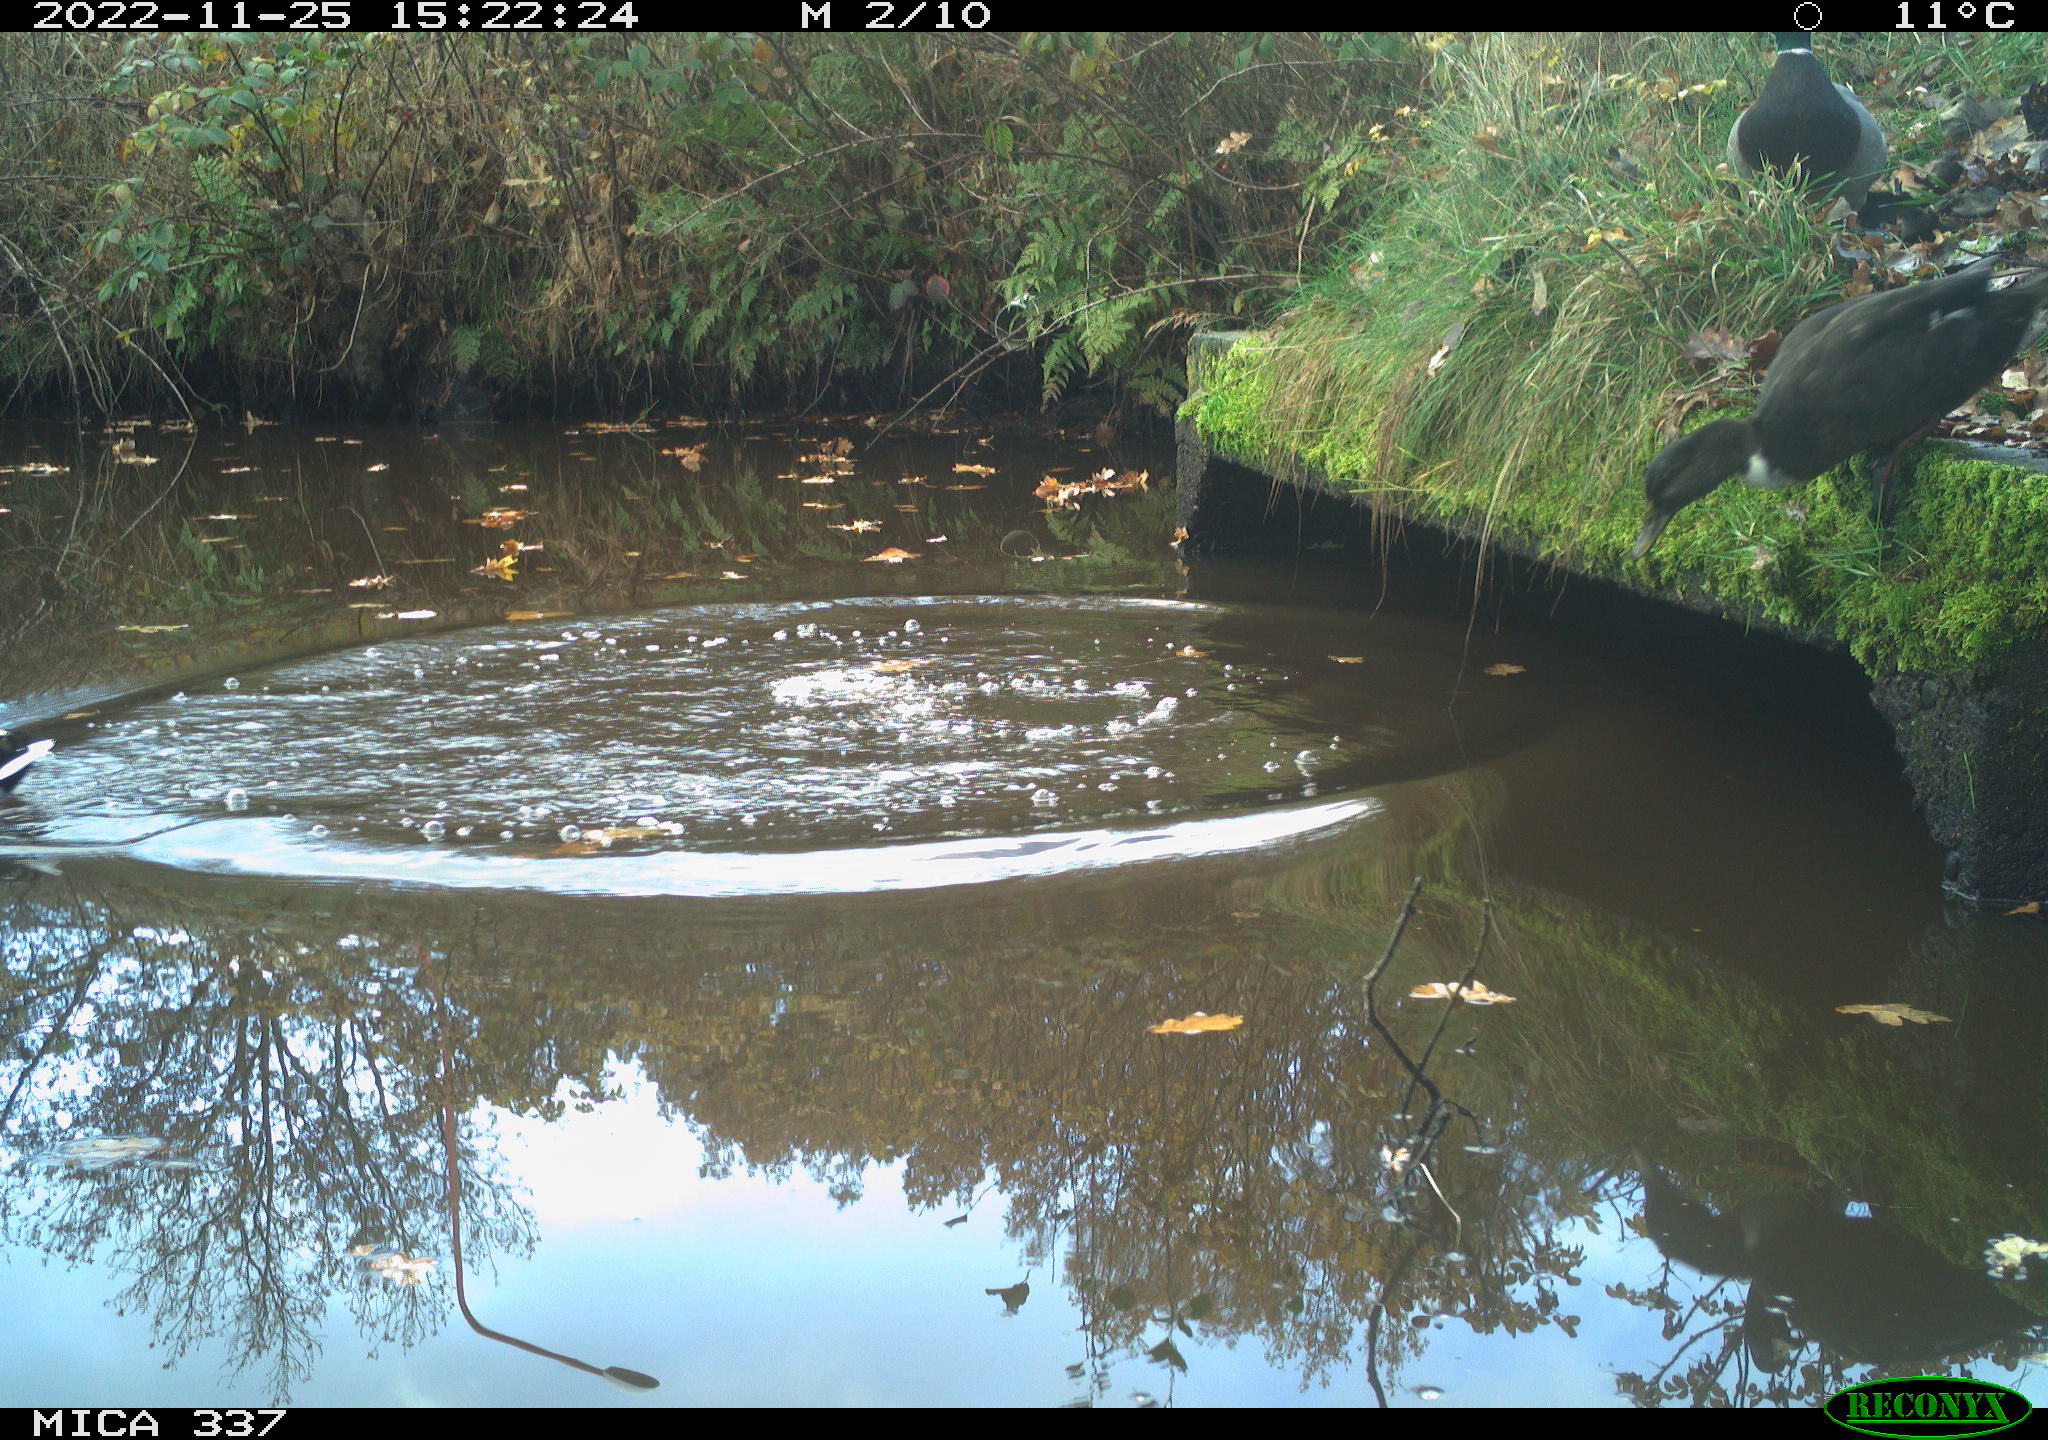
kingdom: Animalia
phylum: Chordata
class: Aves
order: Anseriformes
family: Anatidae
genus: Anas
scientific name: Anas
